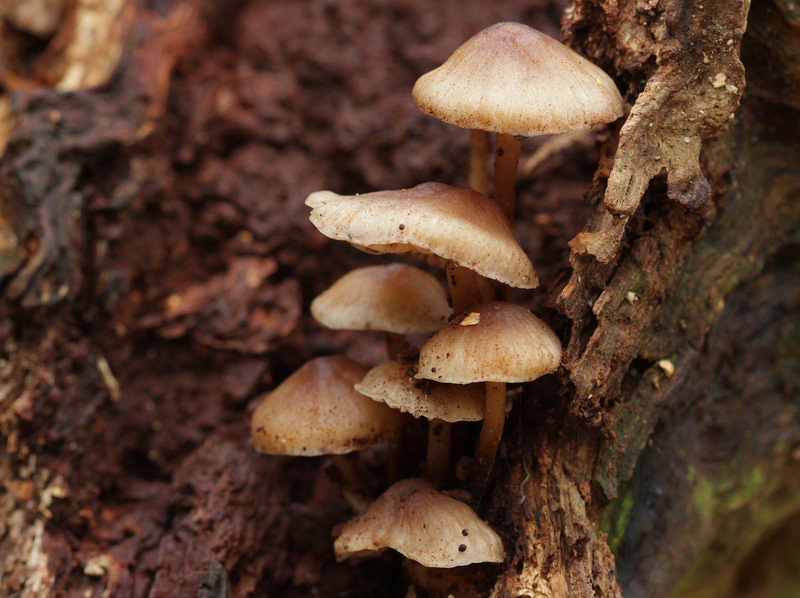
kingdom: Fungi
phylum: Basidiomycota
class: Agaricomycetes
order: Agaricales
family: Mycenaceae
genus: Mycena
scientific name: Mycena galericulata
